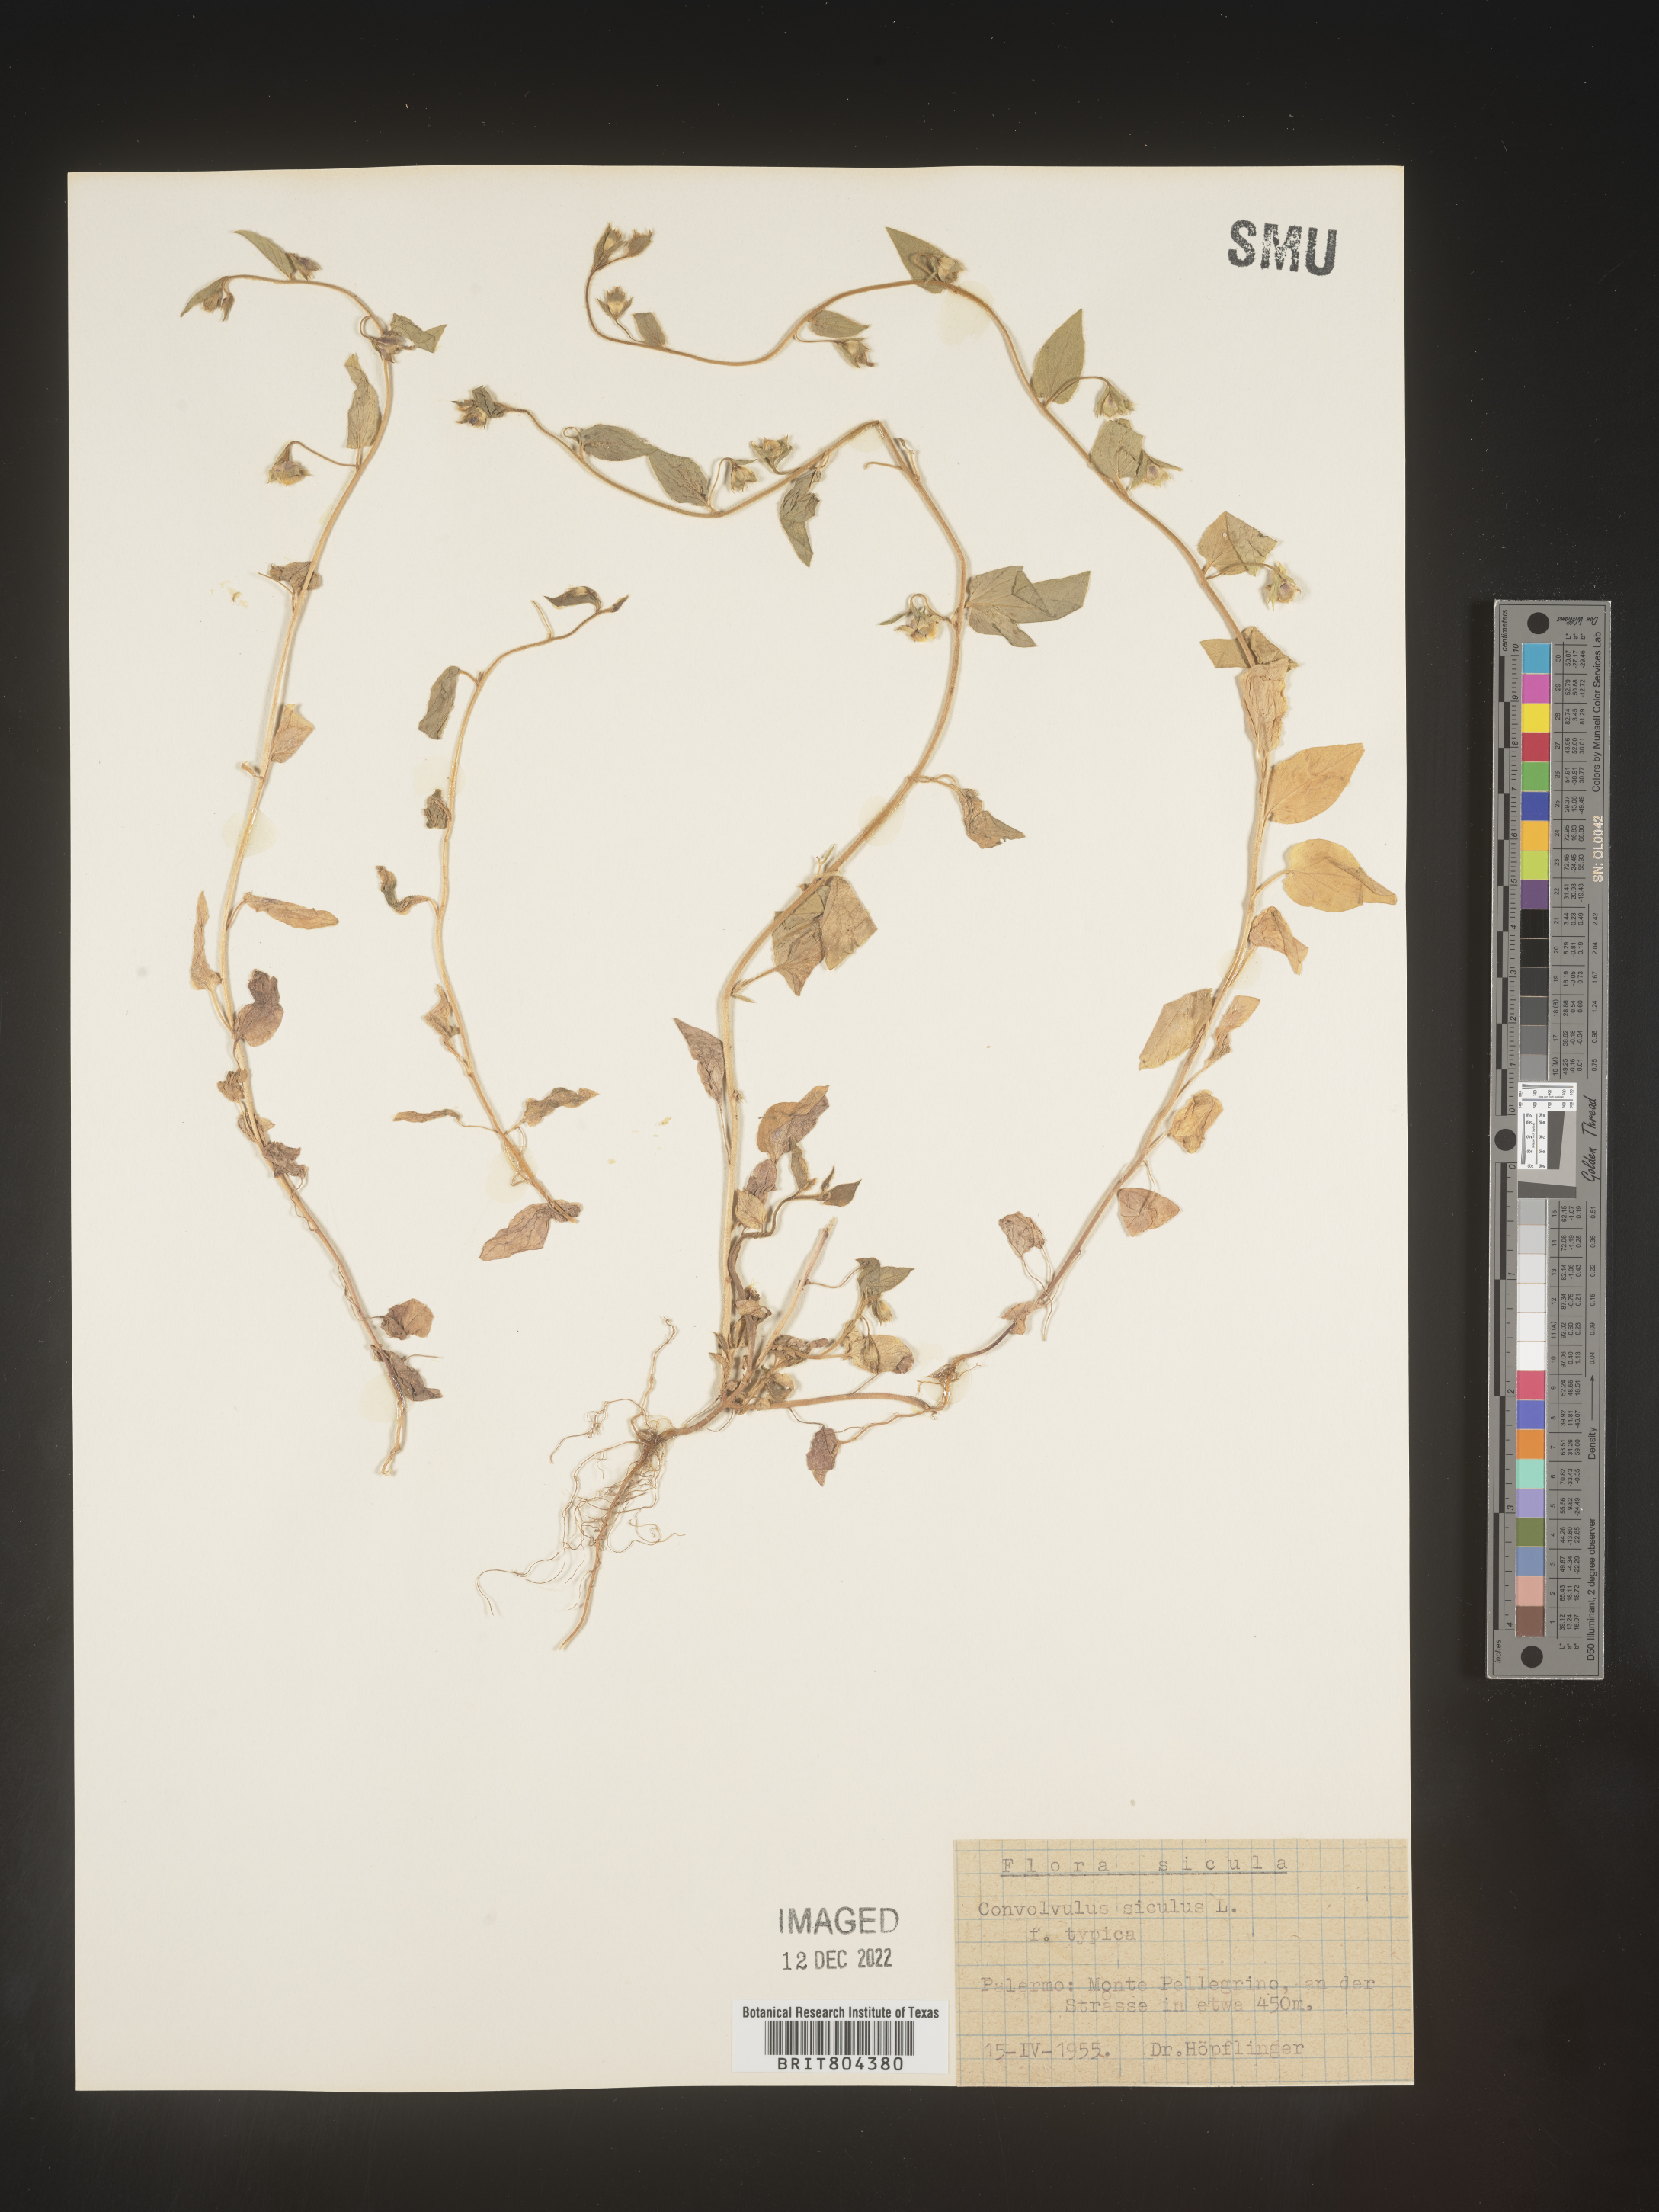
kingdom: Plantae
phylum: Tracheophyta
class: Magnoliopsida
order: Solanales
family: Convolvulaceae
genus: Convolvulus
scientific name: Convolvulus
